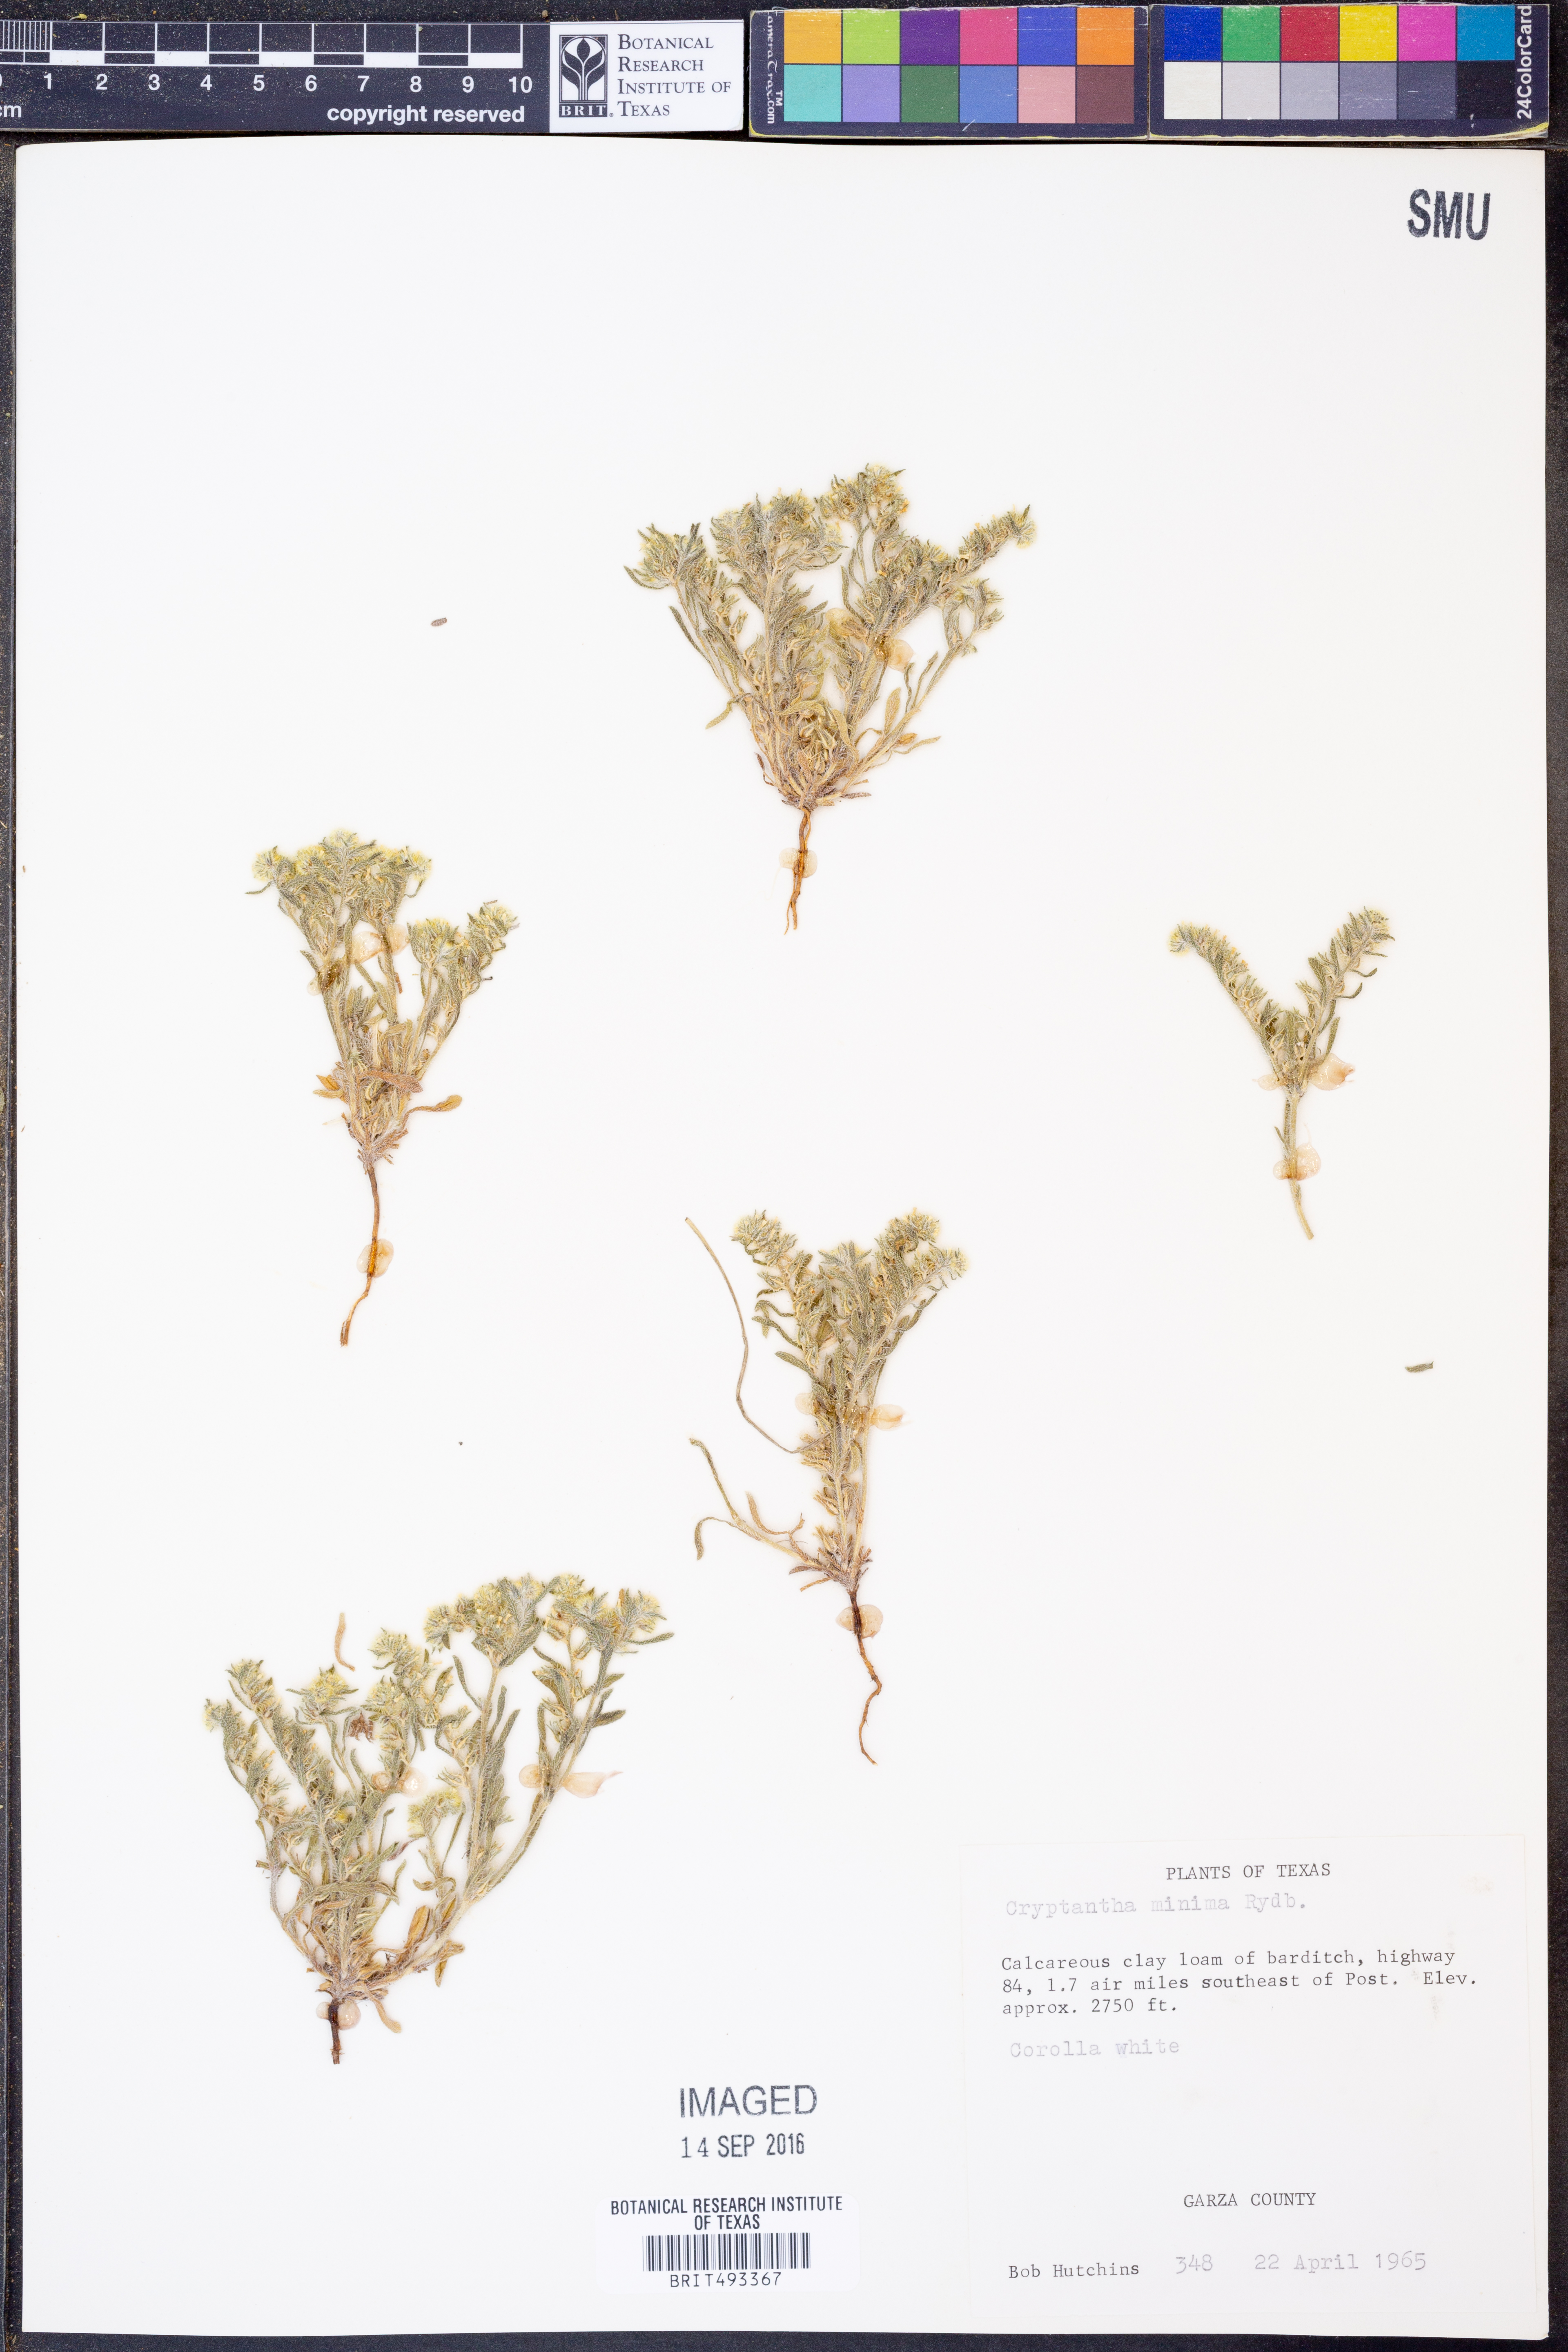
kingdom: Plantae
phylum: Tracheophyta
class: Magnoliopsida
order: Boraginales
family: Boraginaceae
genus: Cryptantha
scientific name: Cryptantha minima
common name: Little cat's-eye
